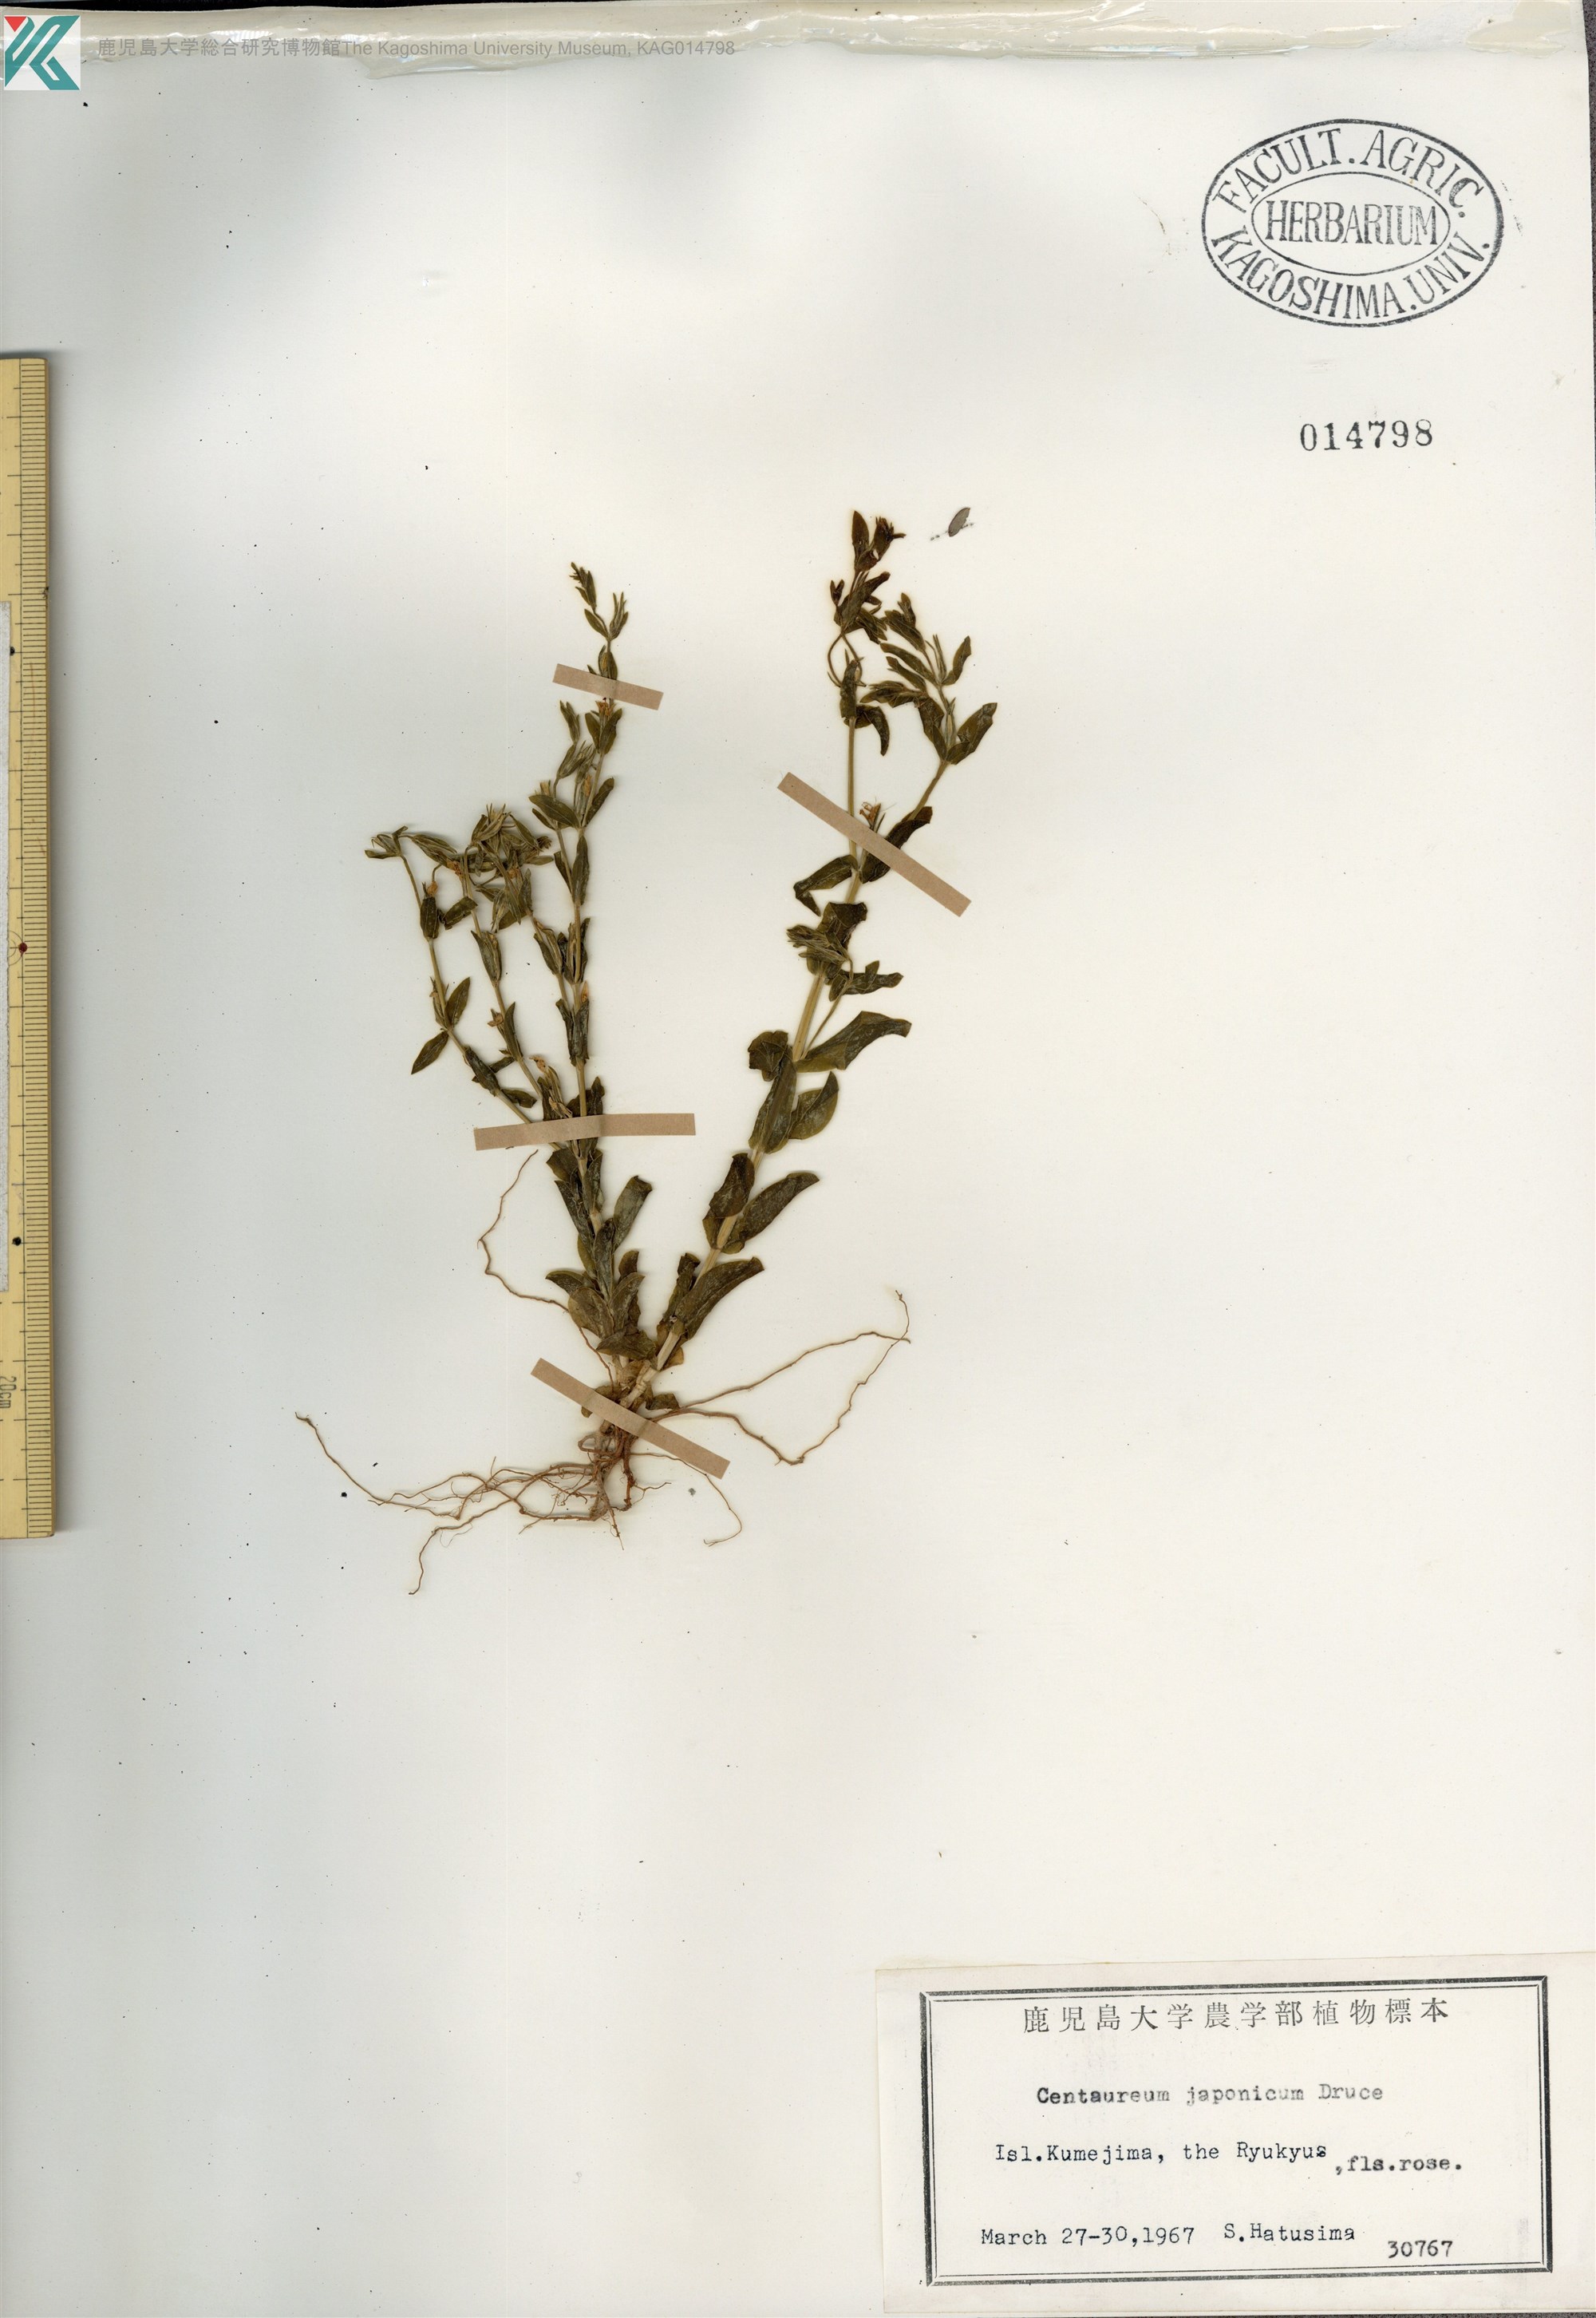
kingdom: Plantae
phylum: Tracheophyta
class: Magnoliopsida
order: Gentianales
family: Gentianaceae
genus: Schenkia
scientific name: Schenkia japonica
